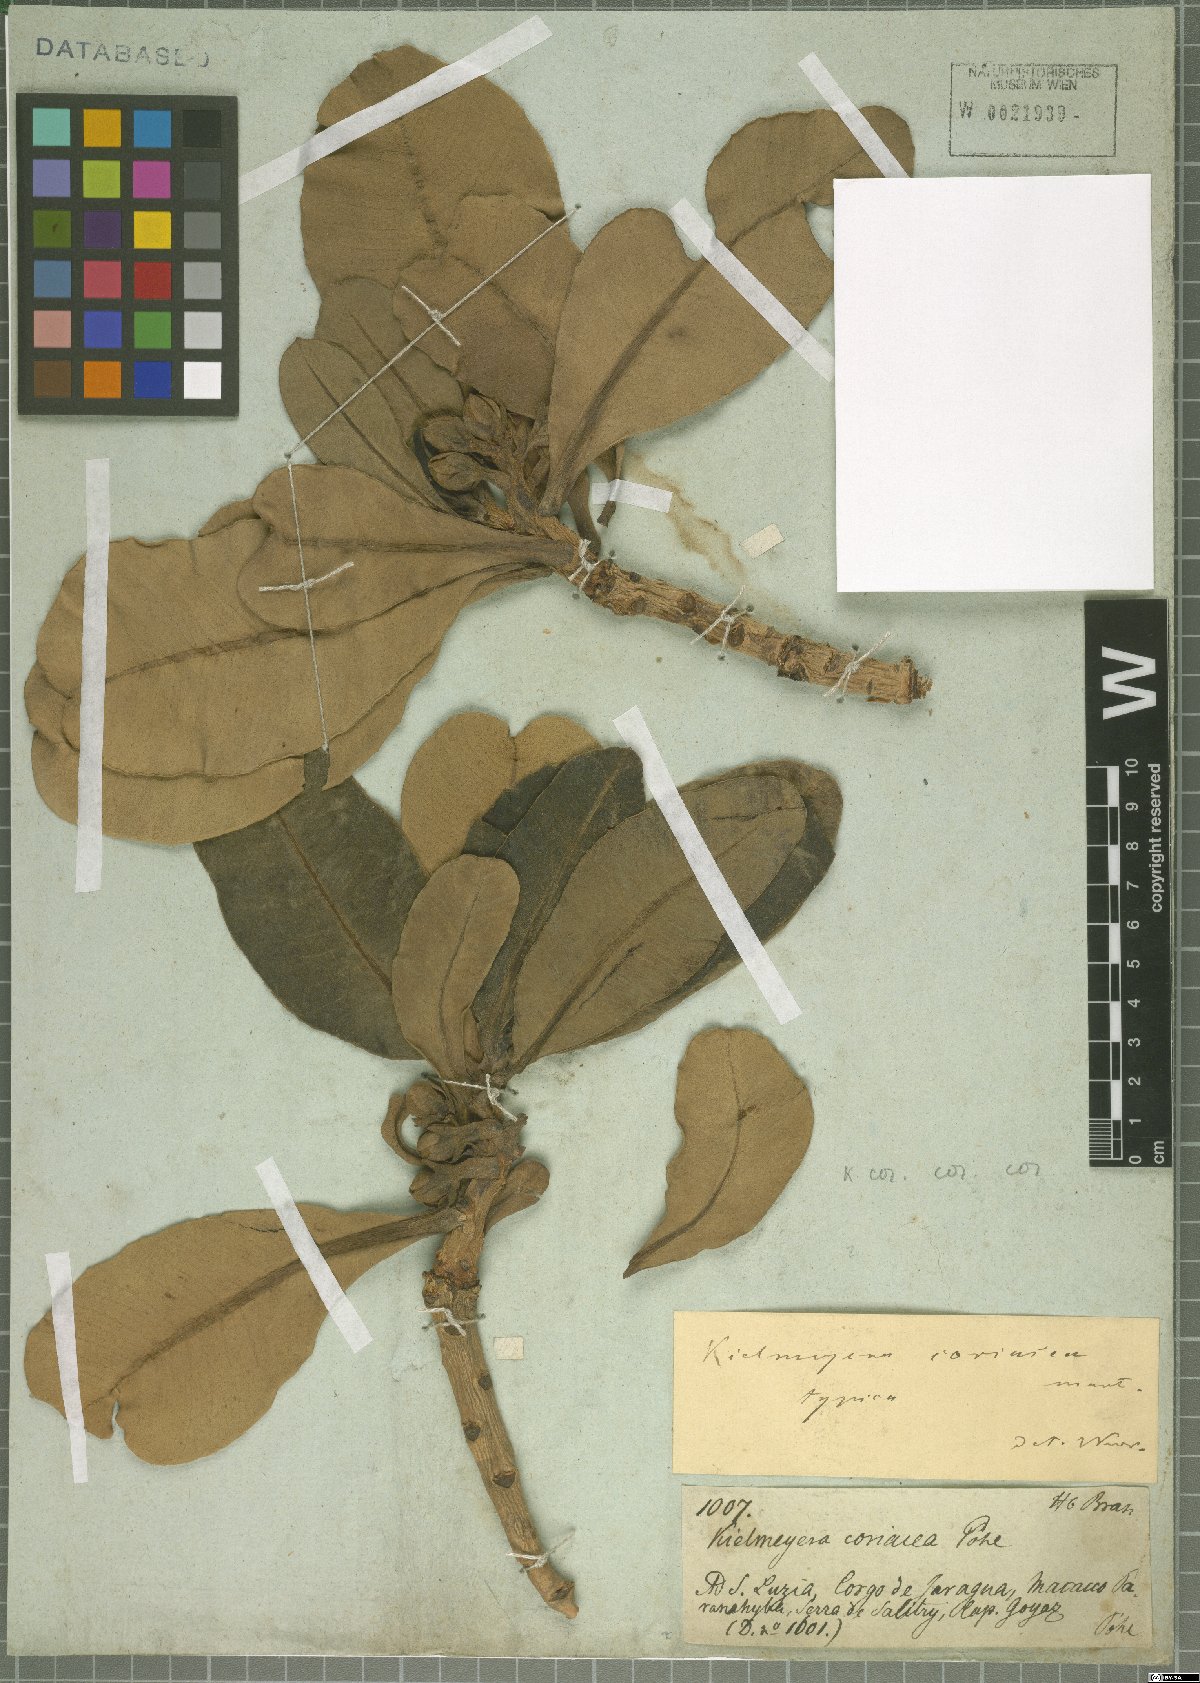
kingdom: Plantae
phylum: Tracheophyta
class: Magnoliopsida
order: Malpighiales
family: Calophyllaceae
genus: Kielmeyera
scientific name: Kielmeyera coriacea
